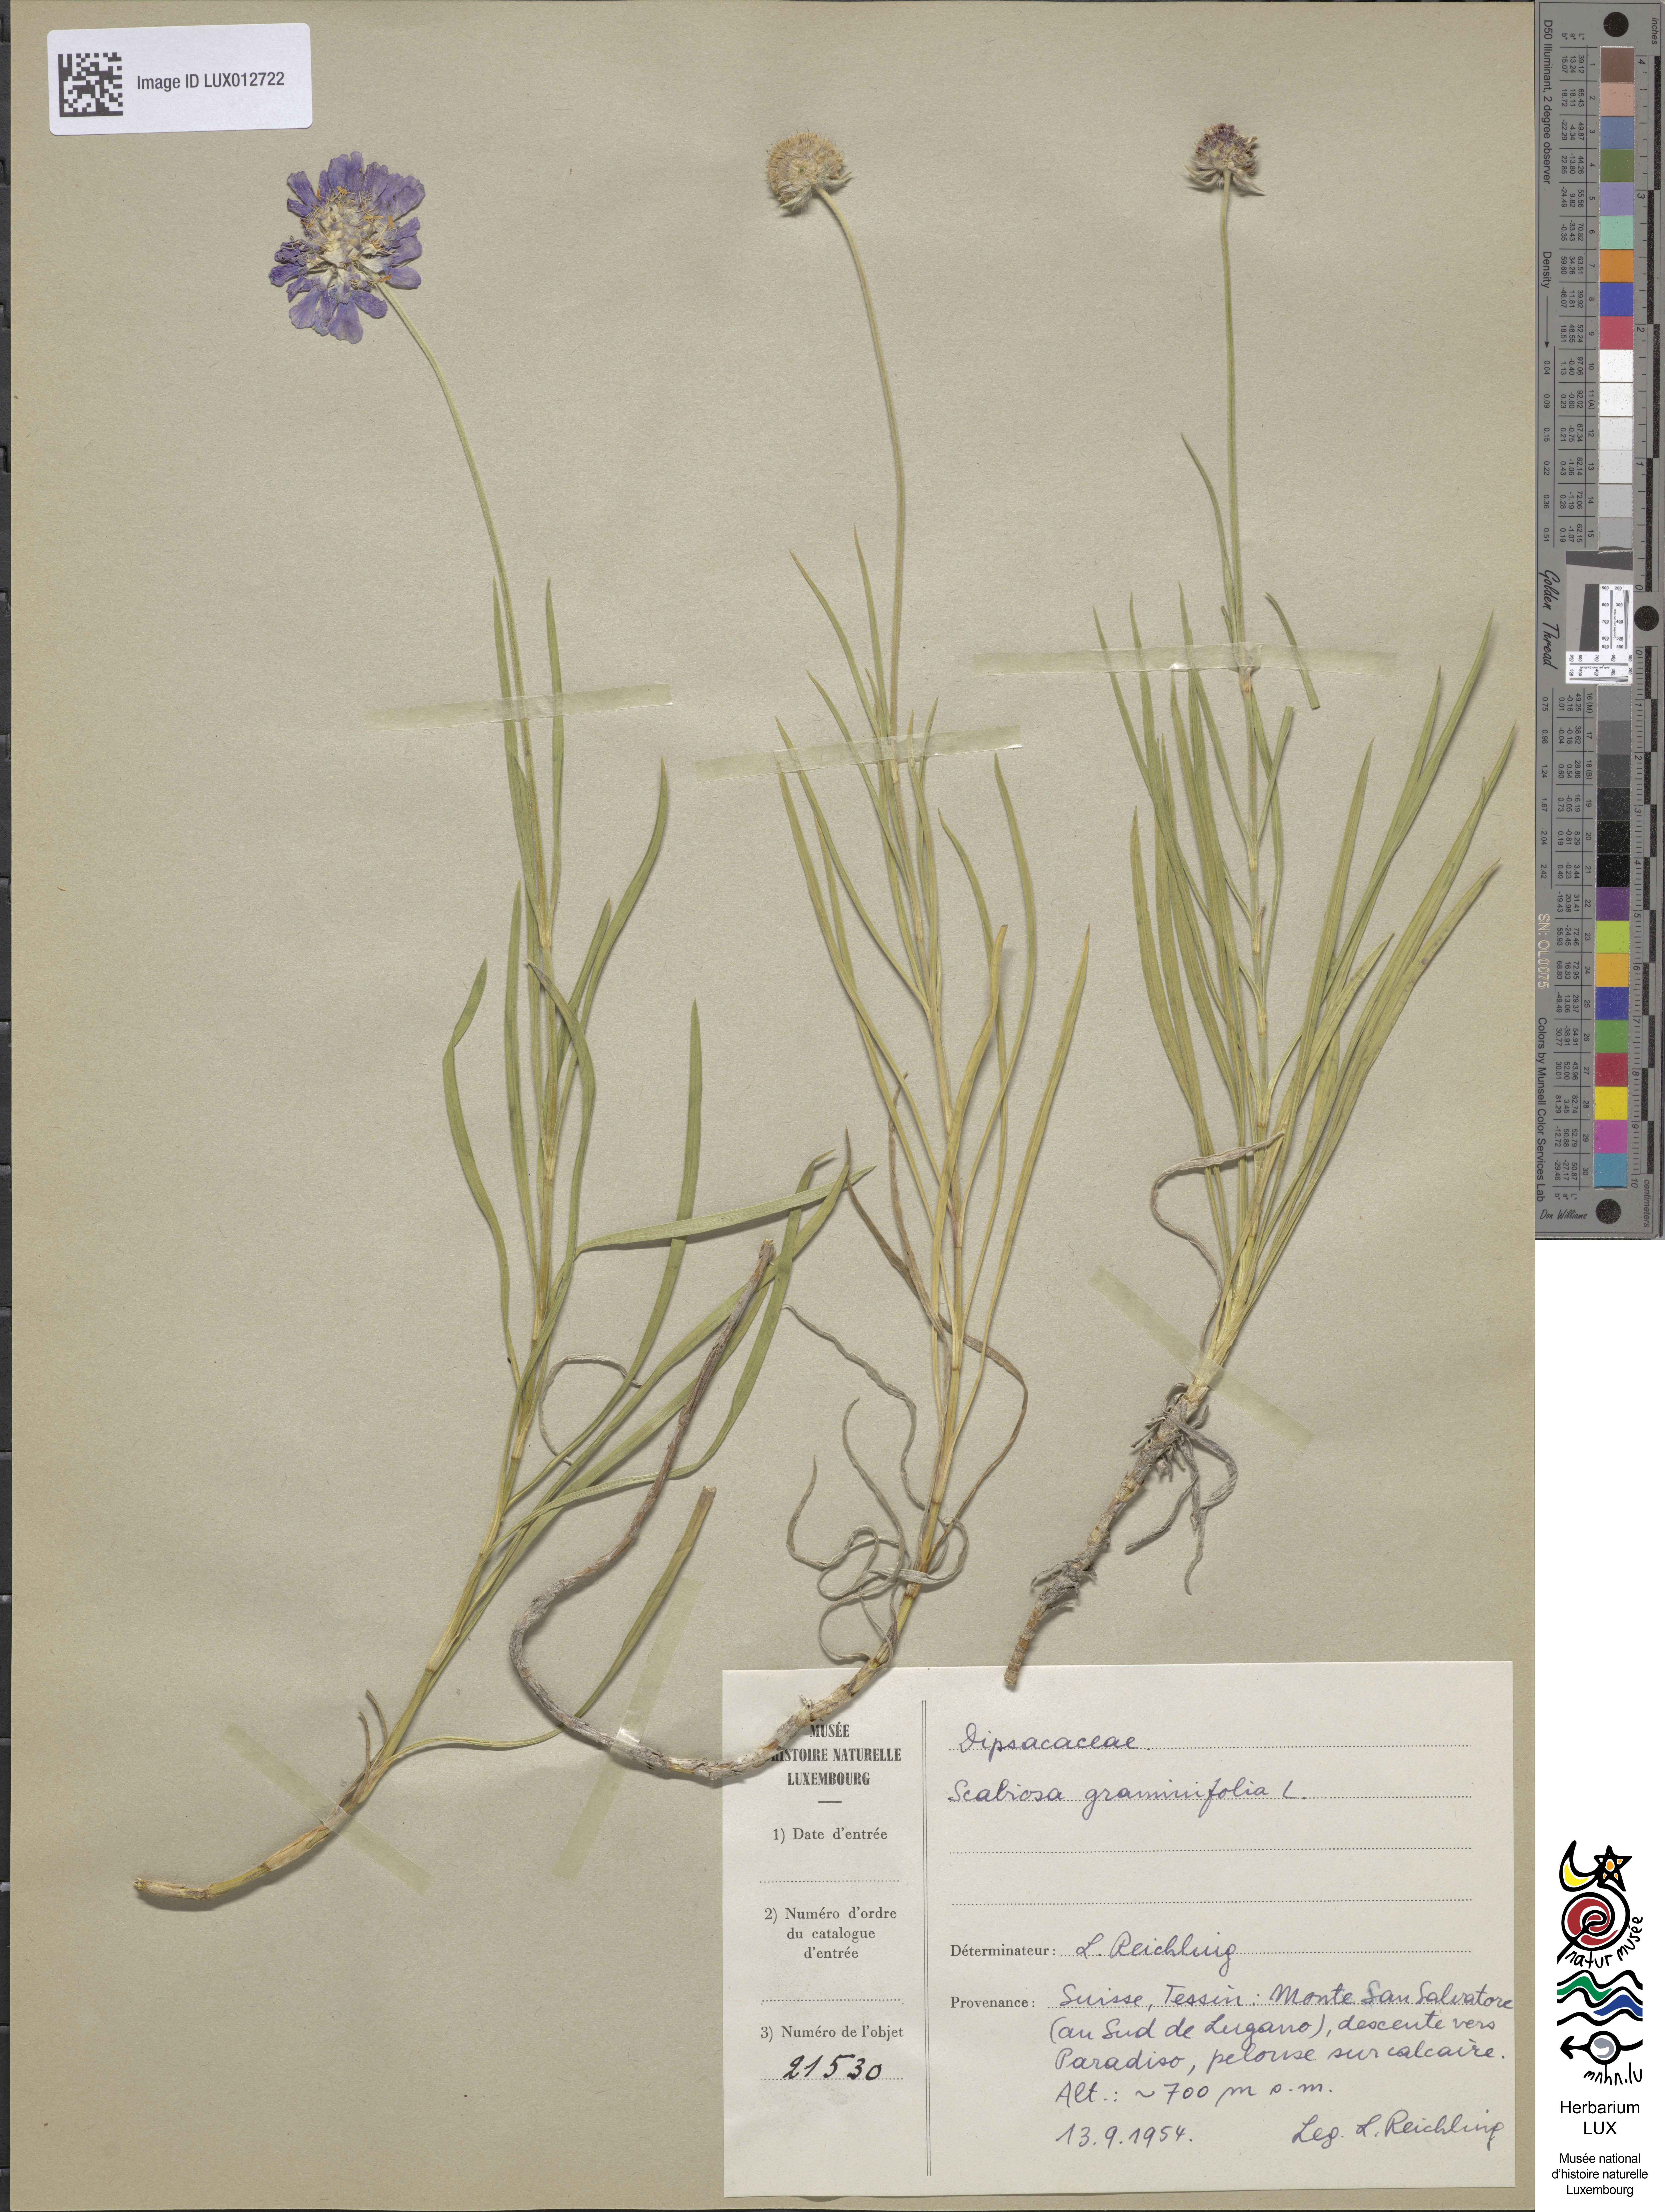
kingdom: Plantae
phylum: Tracheophyta
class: Magnoliopsida
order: Dipsacales
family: Caprifoliaceae
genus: Lomelosia
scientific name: Lomelosia graminifolia
